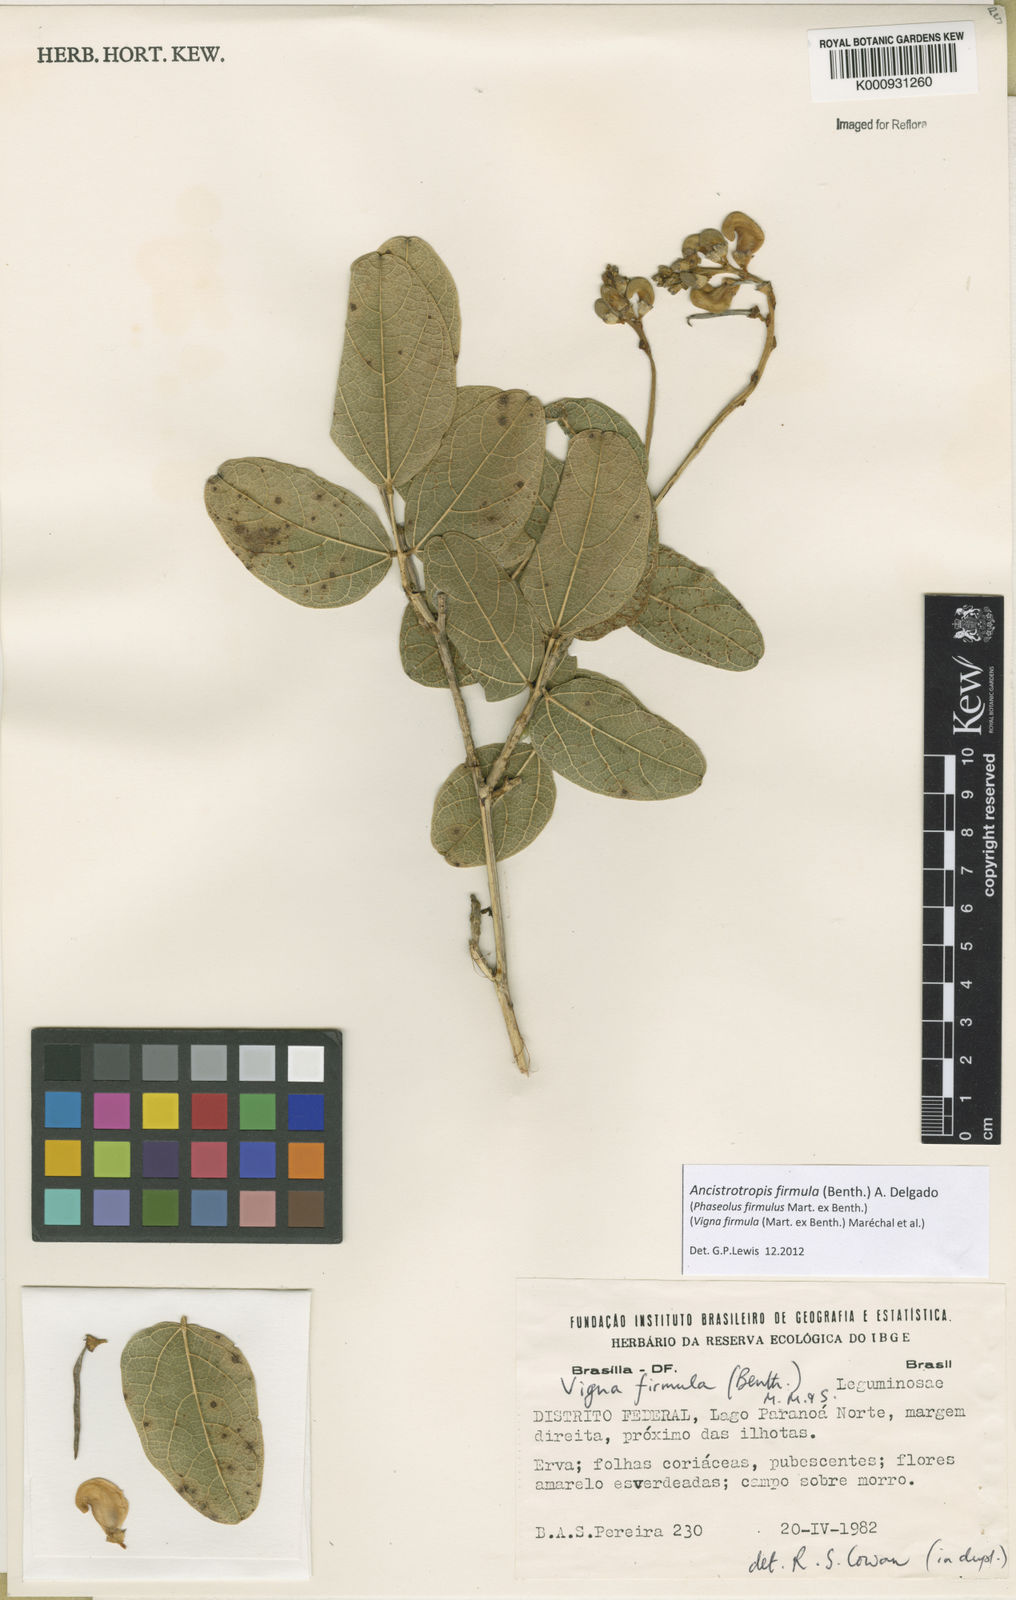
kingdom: Plantae
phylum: Tracheophyta
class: Magnoliopsida
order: Fabales
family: Fabaceae
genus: Ancistrotropis
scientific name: Ancistrotropis firmula
